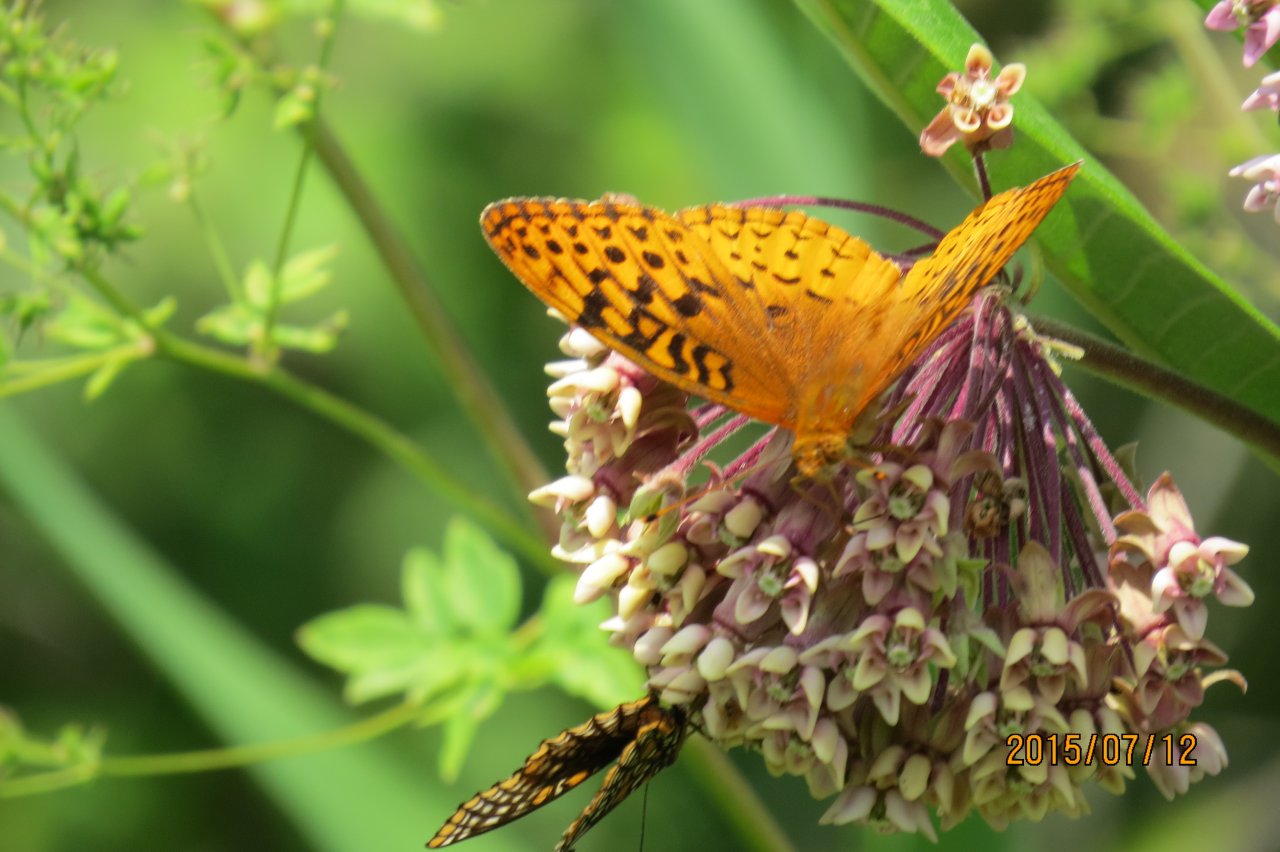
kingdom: Animalia
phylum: Arthropoda
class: Insecta
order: Lepidoptera
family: Nymphalidae
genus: Speyeria
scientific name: Speyeria cybele
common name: Great Spangled Fritillary
